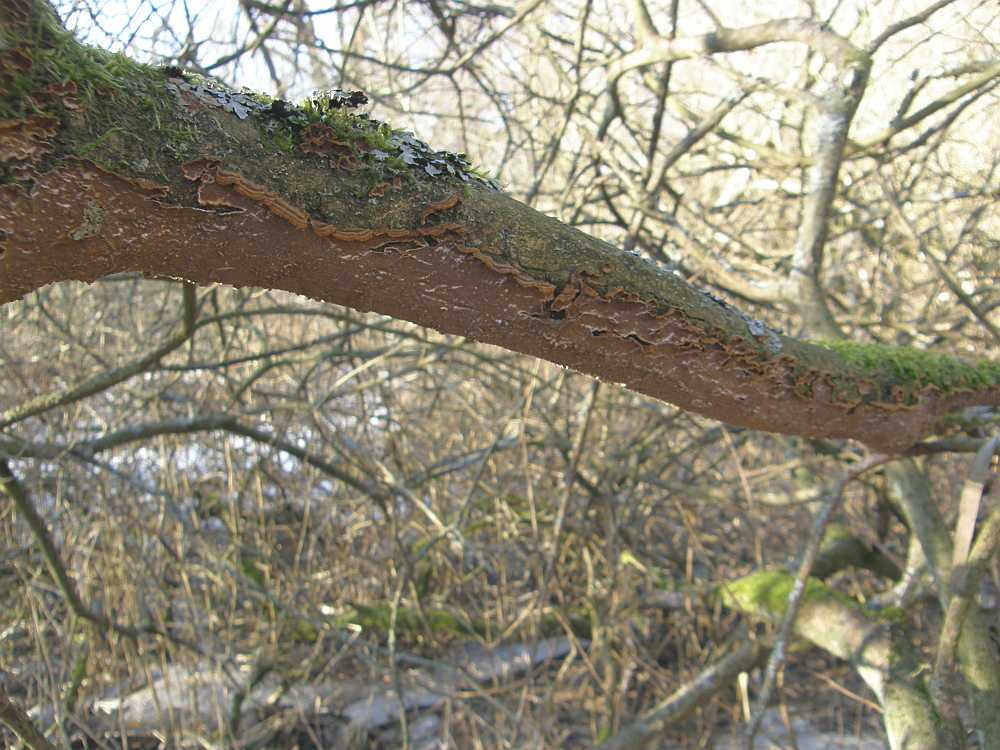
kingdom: Fungi
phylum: Basidiomycota
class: Agaricomycetes
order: Hymenochaetales
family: Hymenochaetaceae
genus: Hydnoporia
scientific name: Hydnoporia tabacina
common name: tobaksbrun ruslædersvamp
